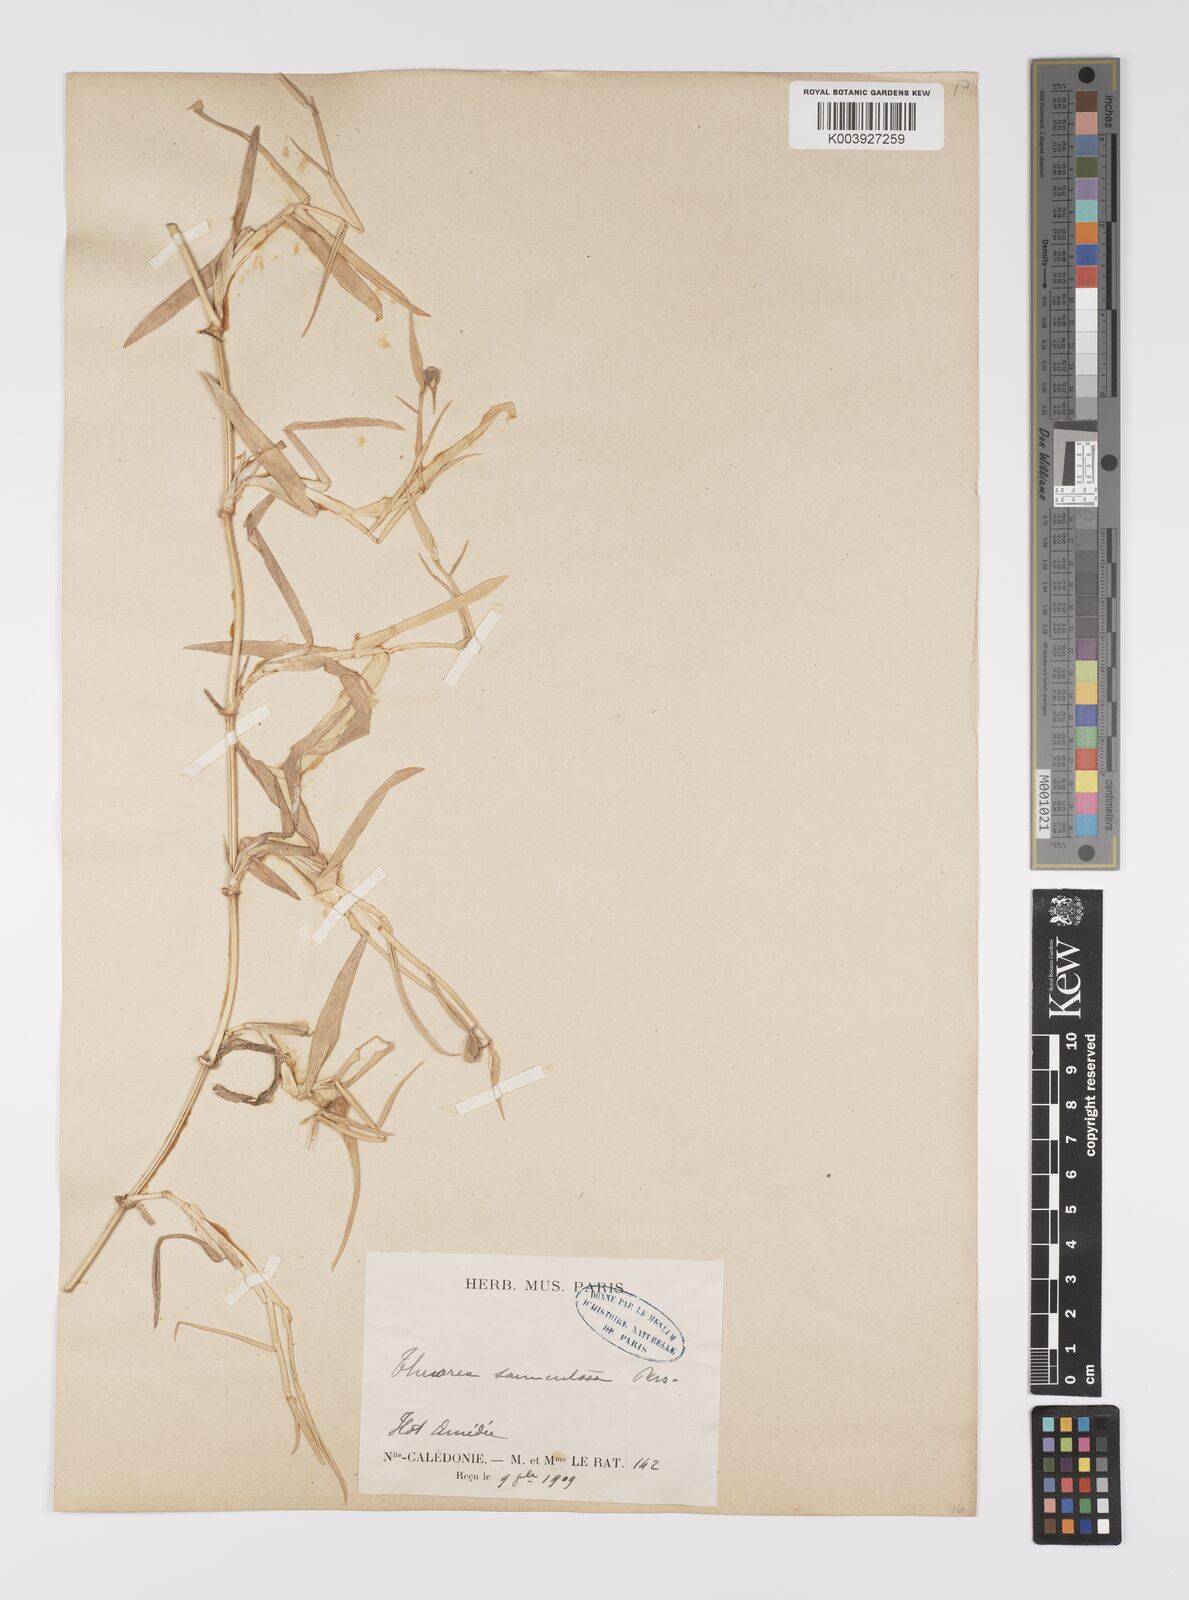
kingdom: Plantae
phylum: Tracheophyta
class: Liliopsida
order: Poales
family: Poaceae
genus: Thuarea
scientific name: Thuarea involuta
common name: Tropical beach grass
